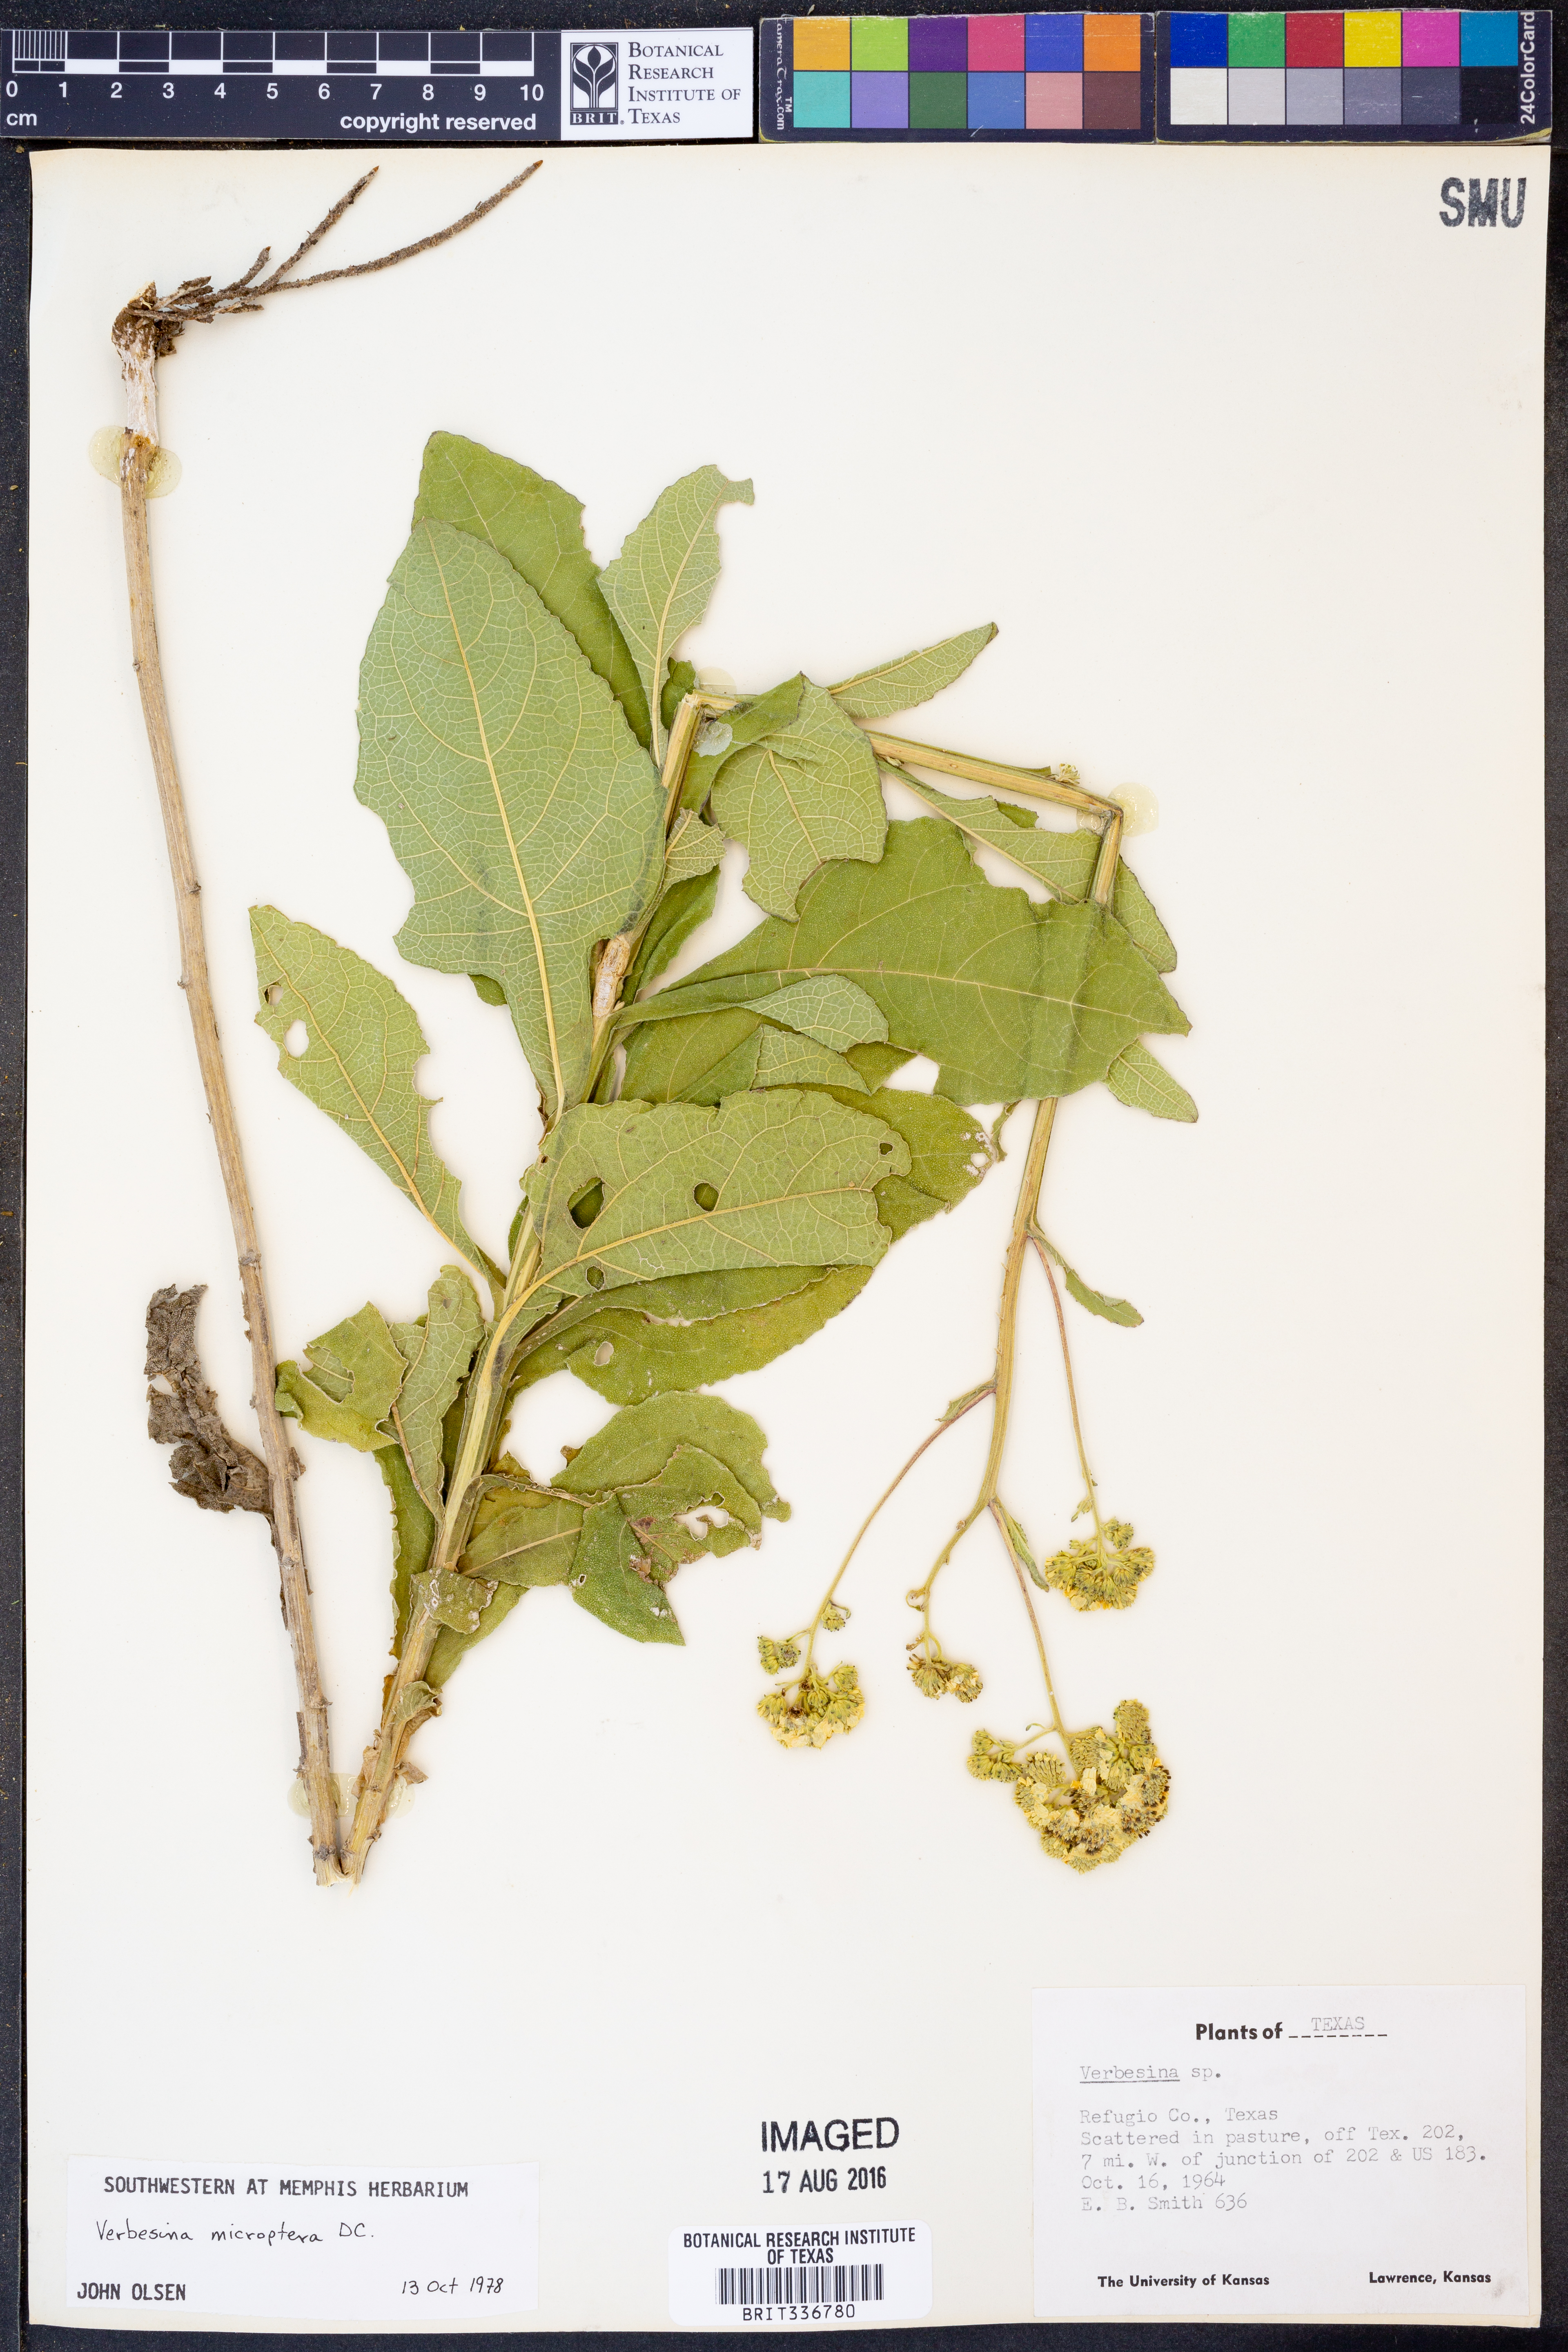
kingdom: Plantae
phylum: Tracheophyta
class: Magnoliopsida
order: Asterales
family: Asteraceae
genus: Verbesina
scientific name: Verbesina encelioides
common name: Golden crownbeard
